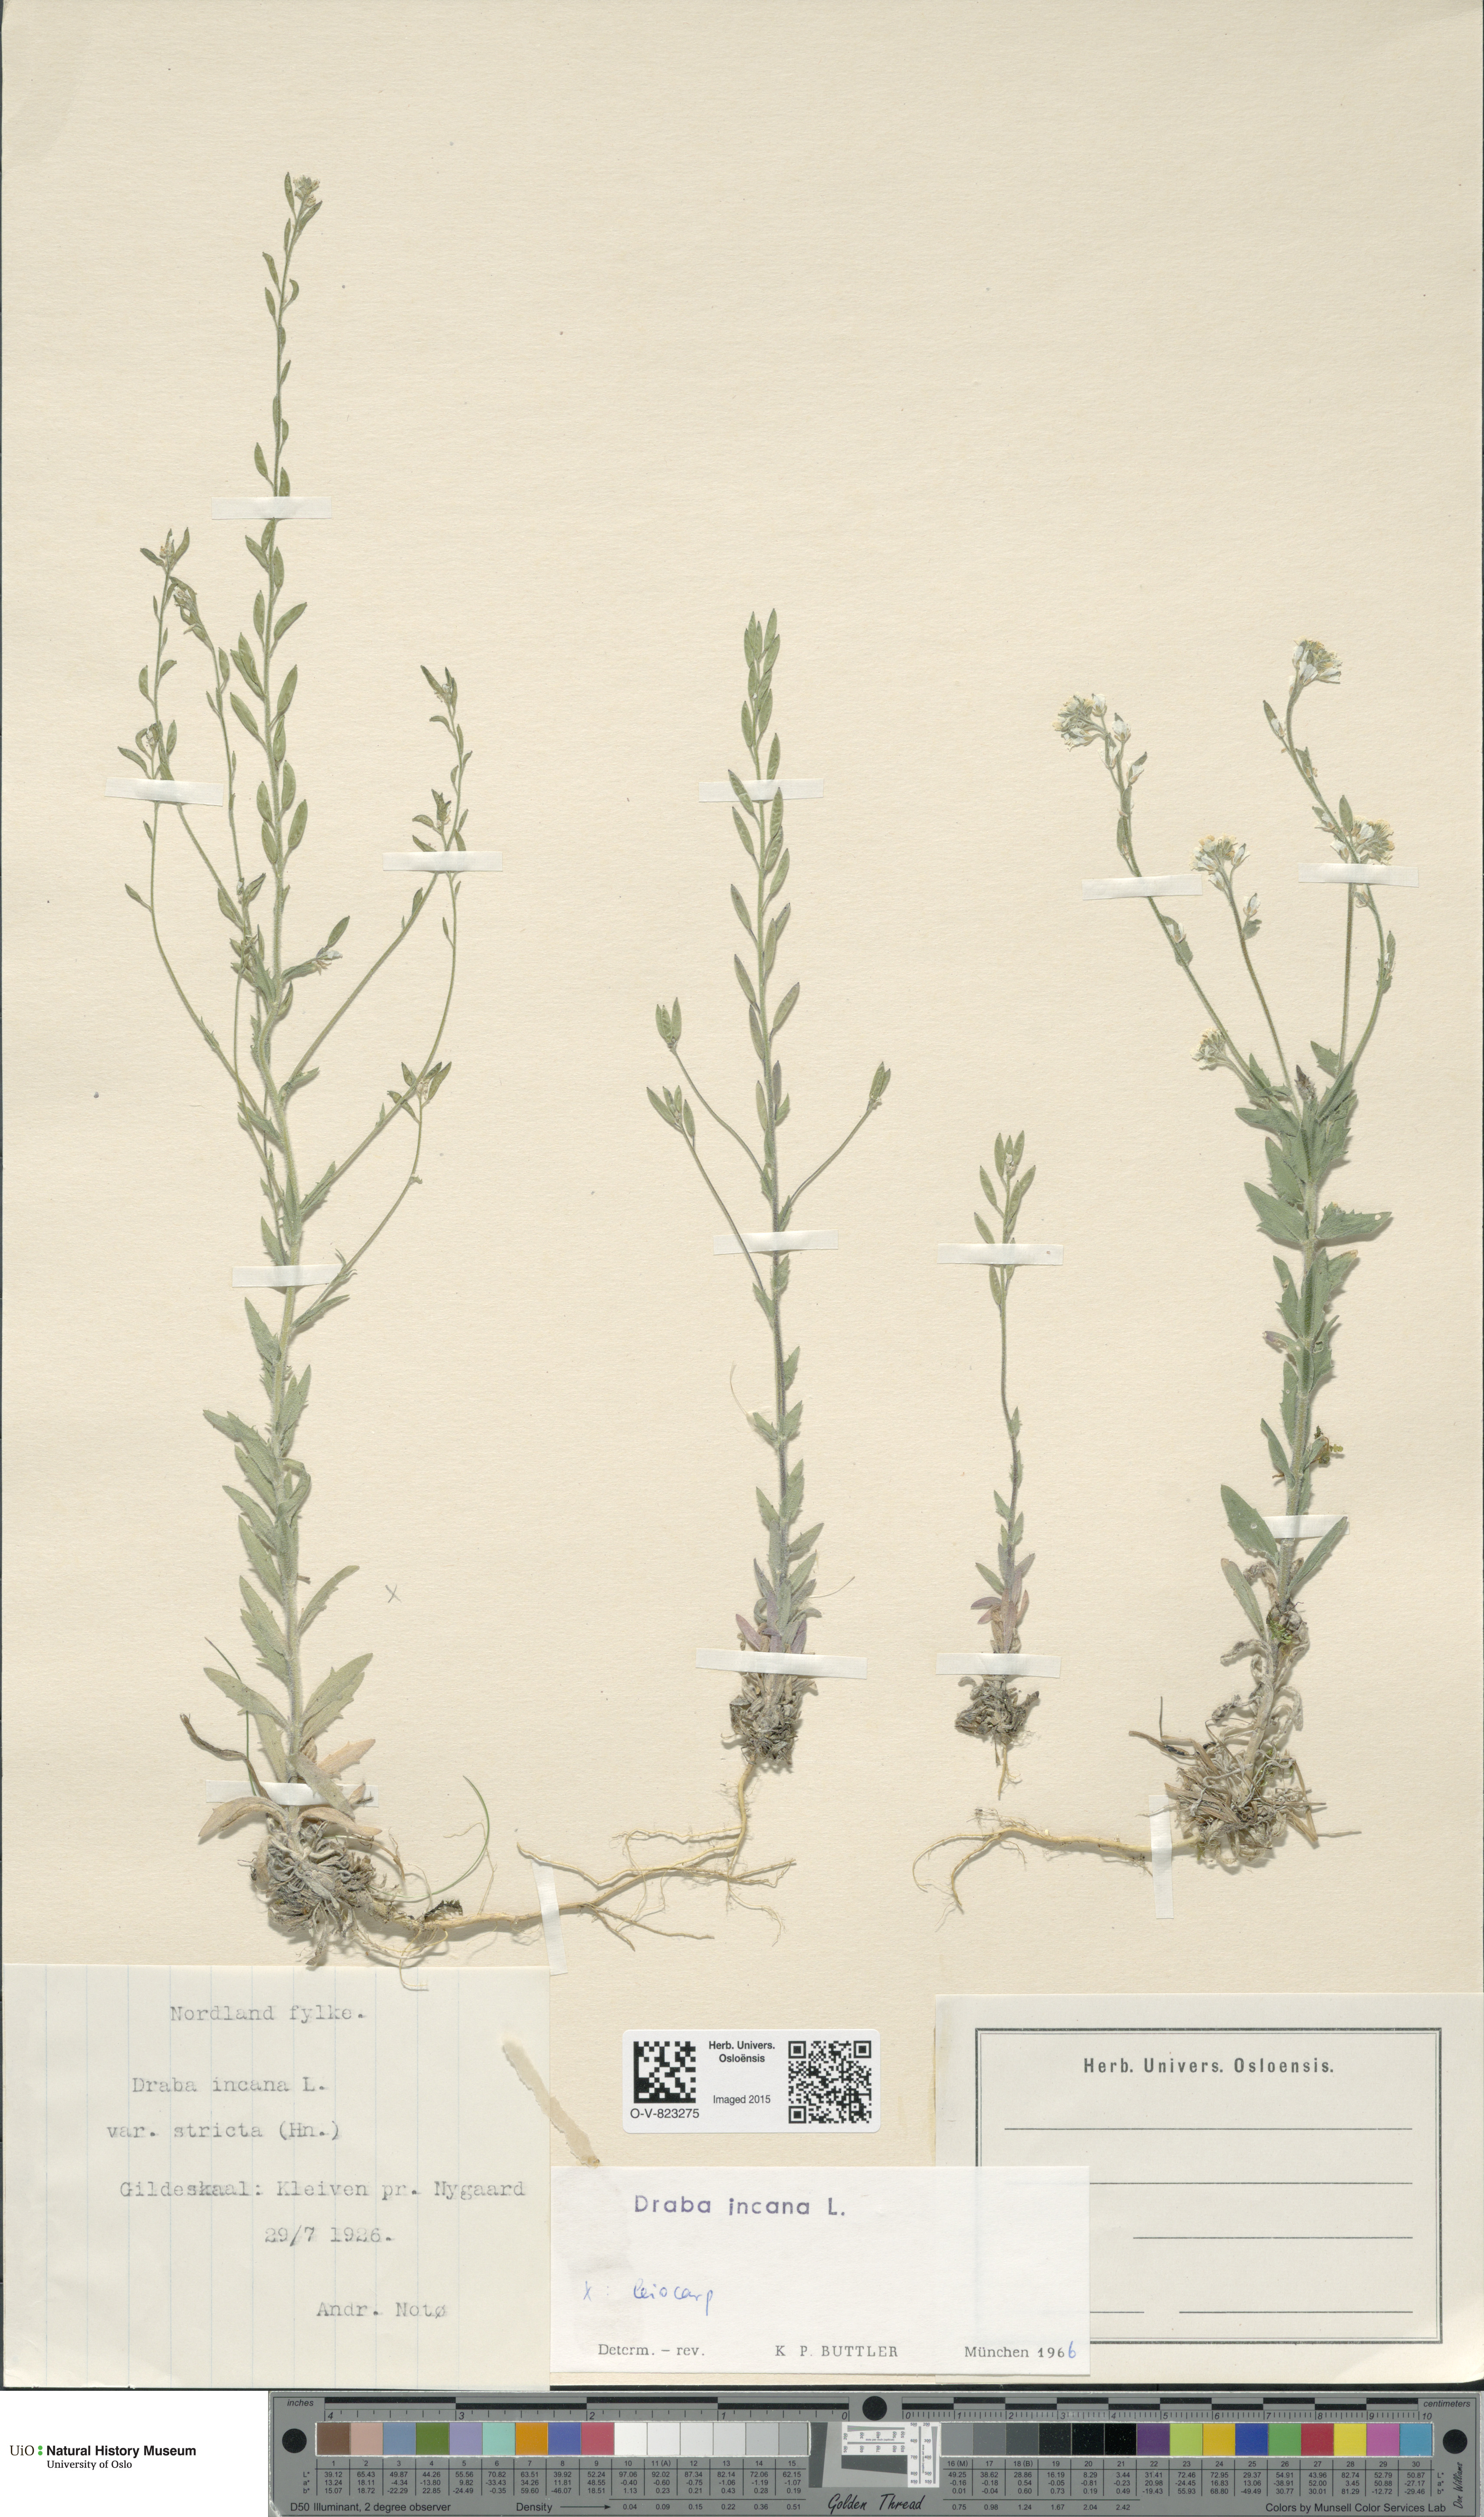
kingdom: Plantae
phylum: Tracheophyta
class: Magnoliopsida
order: Brassicales
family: Brassicaceae
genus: Draba
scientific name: Draba incana
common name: Hoary whitlow-grass
